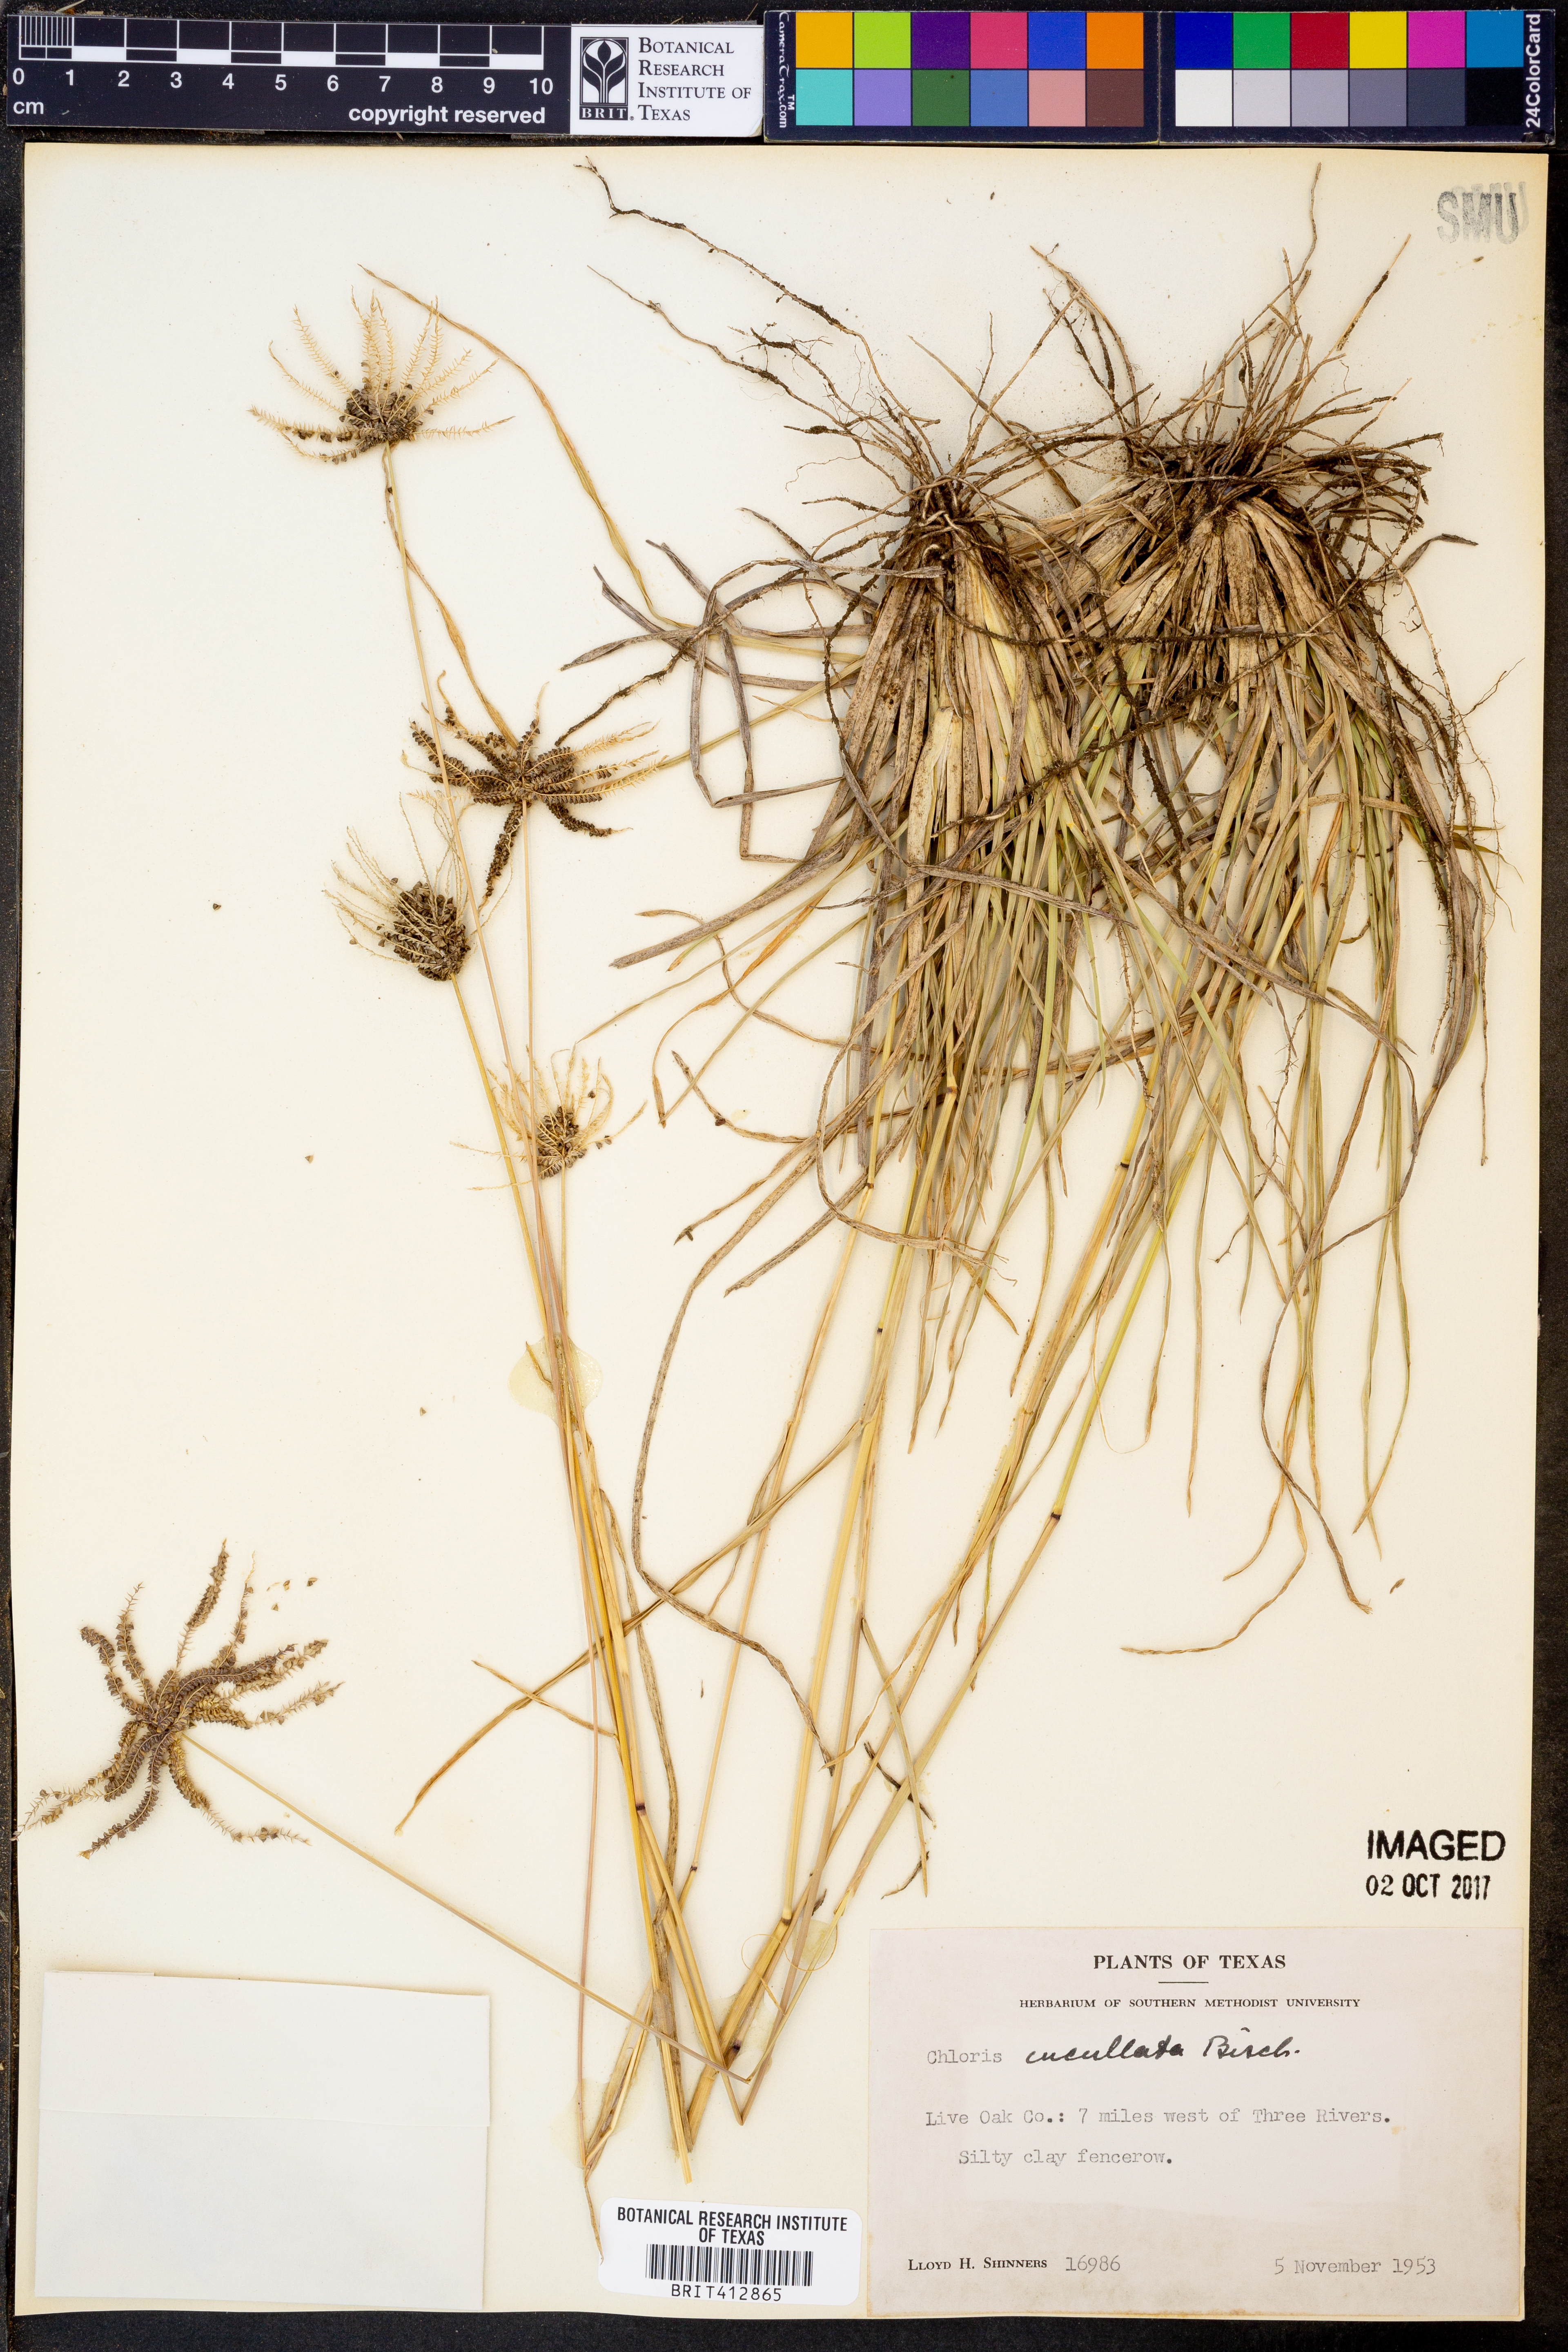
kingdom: Plantae
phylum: Tracheophyta
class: Liliopsida
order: Poales
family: Poaceae
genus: Chloris
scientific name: Chloris cucullata
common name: Hooded windmill grass
